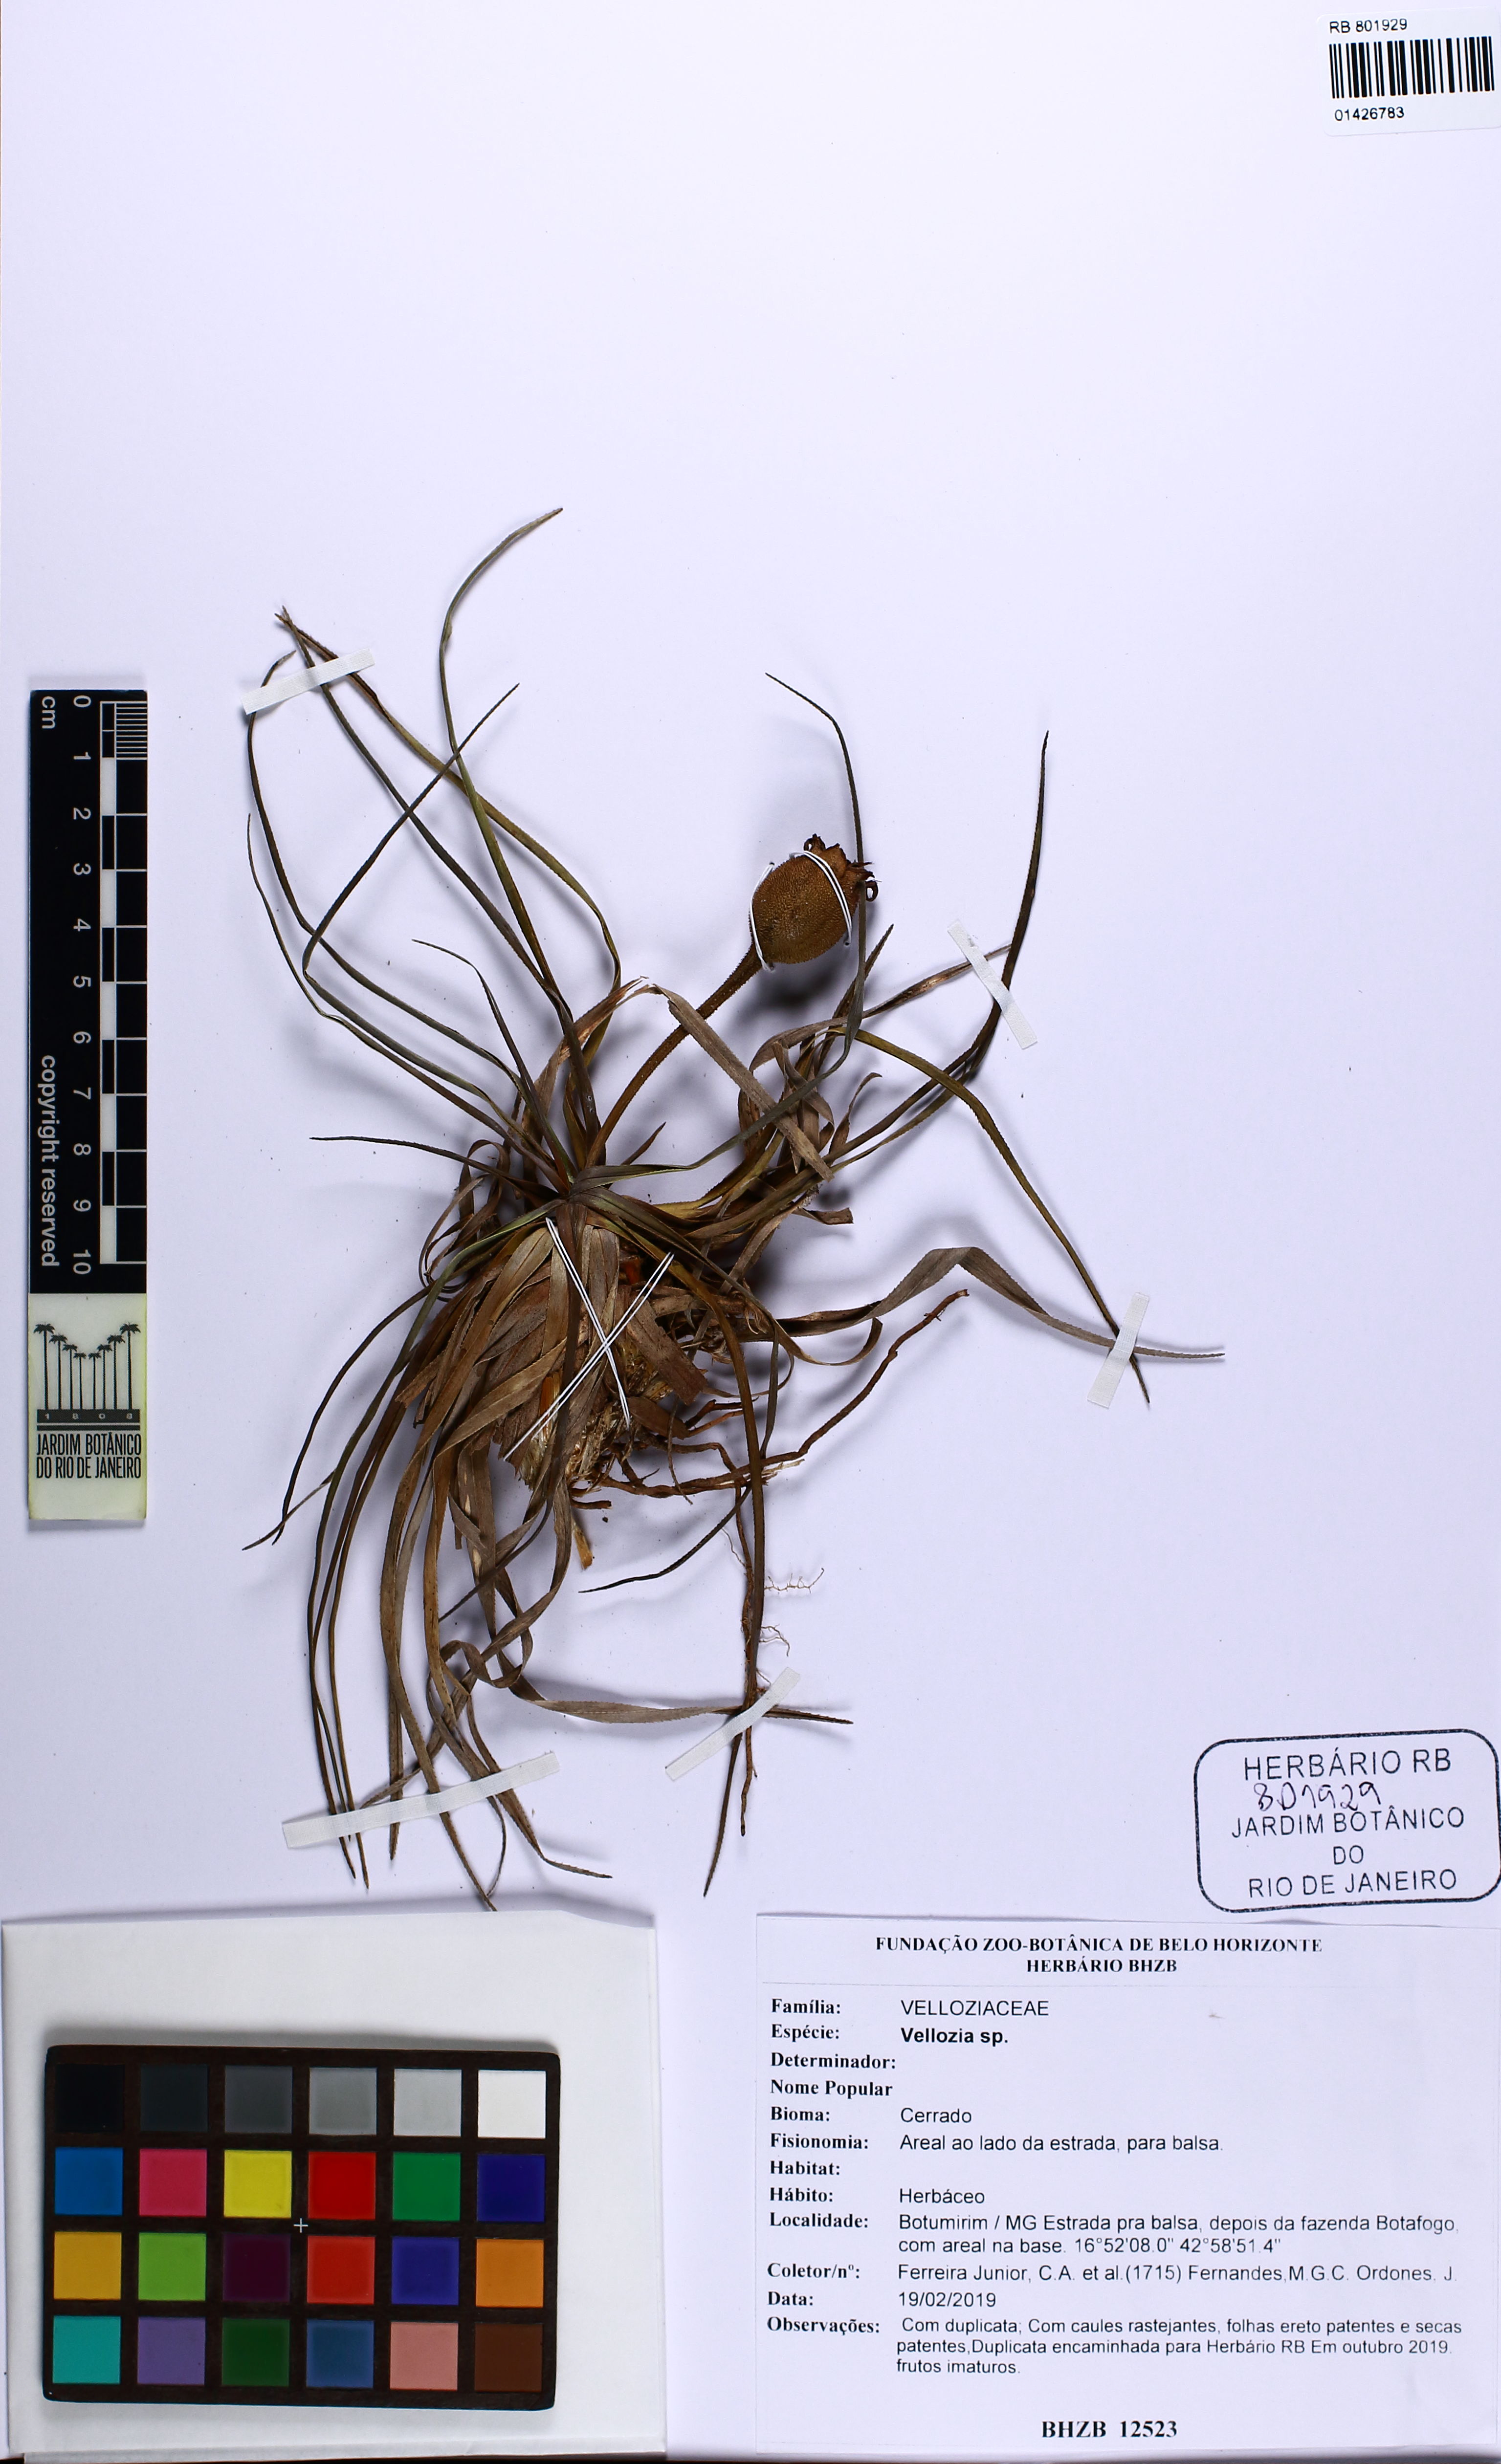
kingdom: Plantae
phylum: Tracheophyta
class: Liliopsida
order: Pandanales
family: Velloziaceae
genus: Vellozia
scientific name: Vellozia
